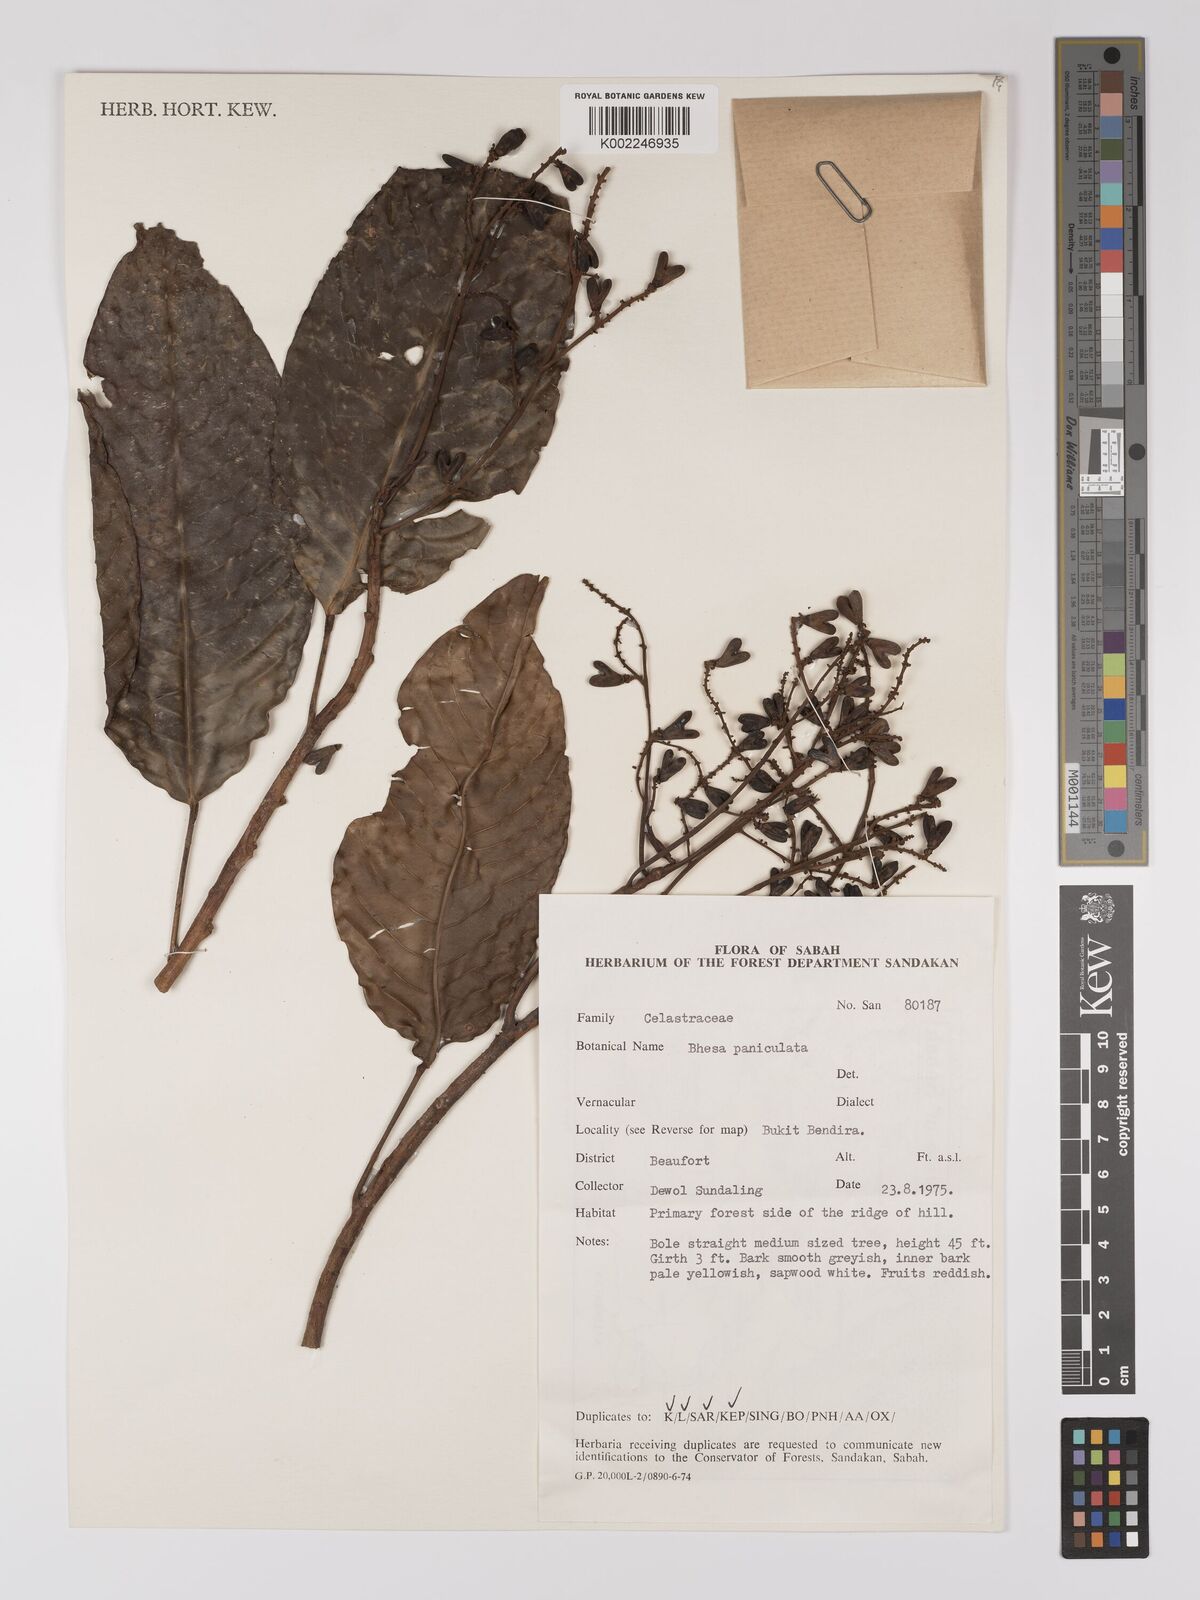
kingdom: Plantae
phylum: Tracheophyta
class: Magnoliopsida
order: Malpighiales
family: Centroplacaceae
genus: Bhesa
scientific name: Bhesa paniculata
